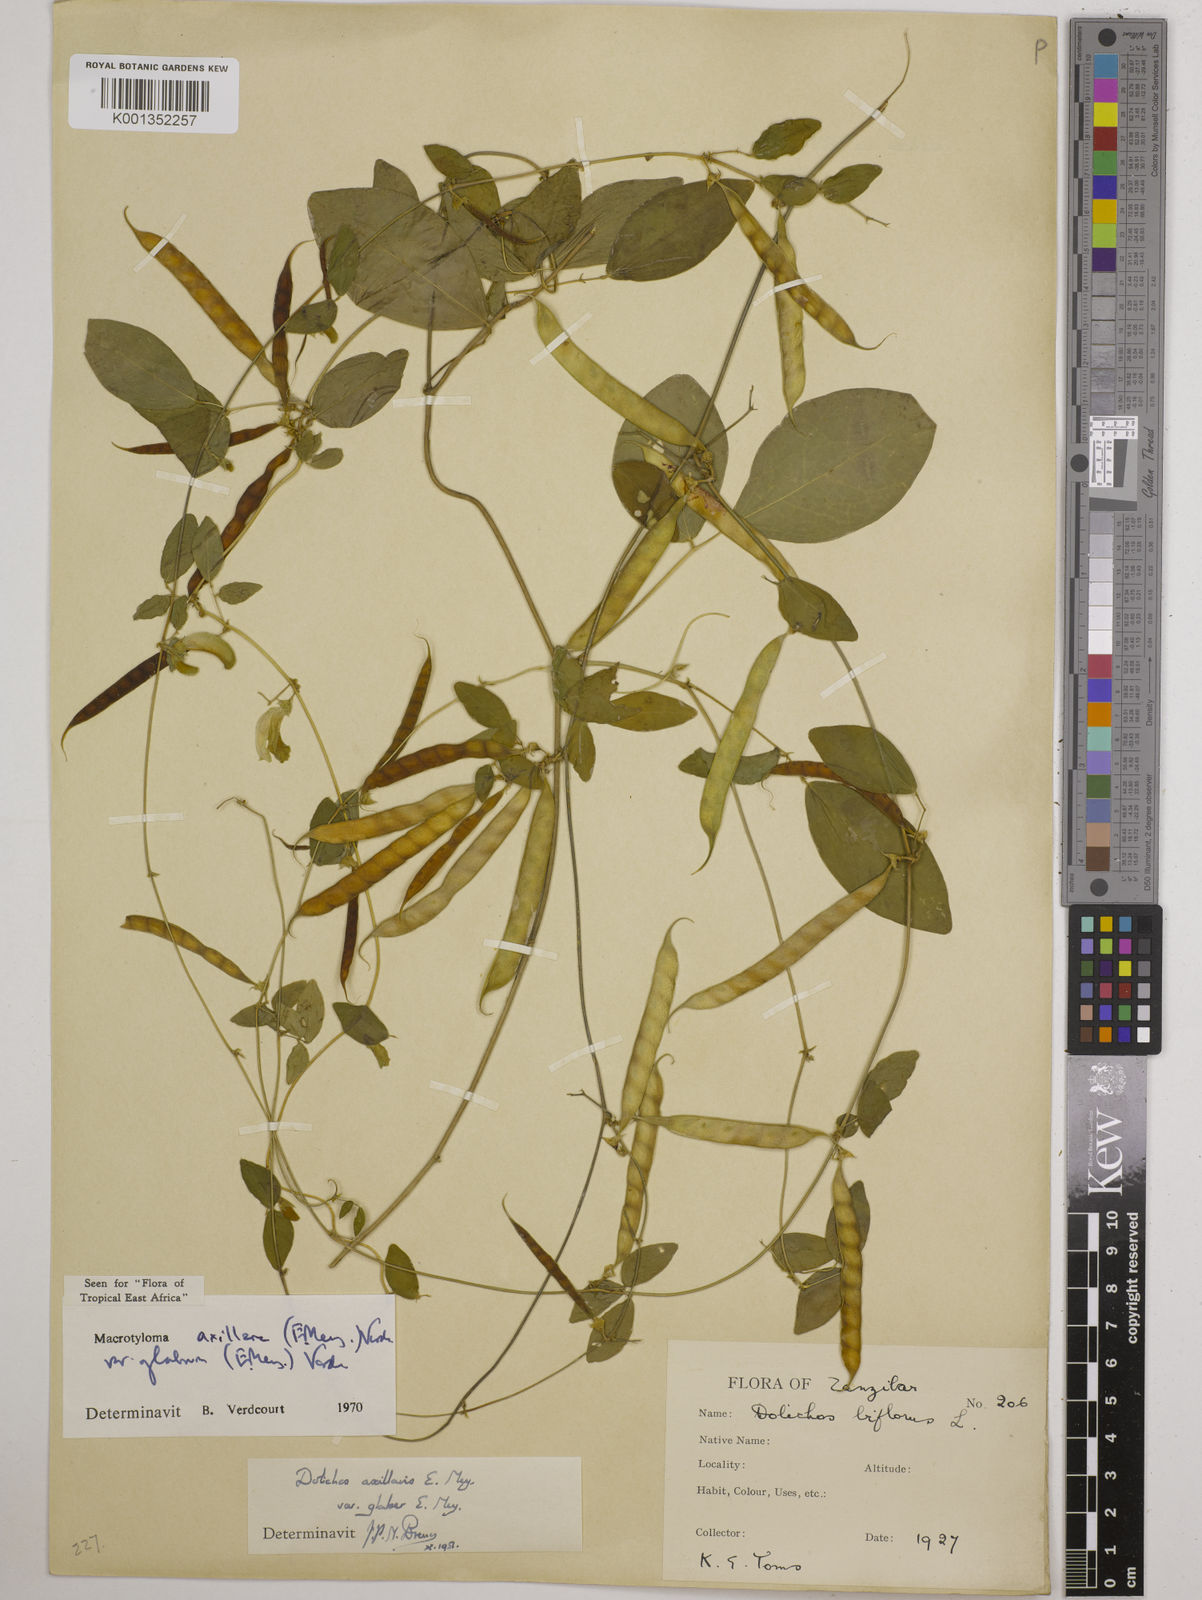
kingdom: Plantae
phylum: Tracheophyta
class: Magnoliopsida
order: Fabales
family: Fabaceae
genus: Macrotyloma
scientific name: Macrotyloma
